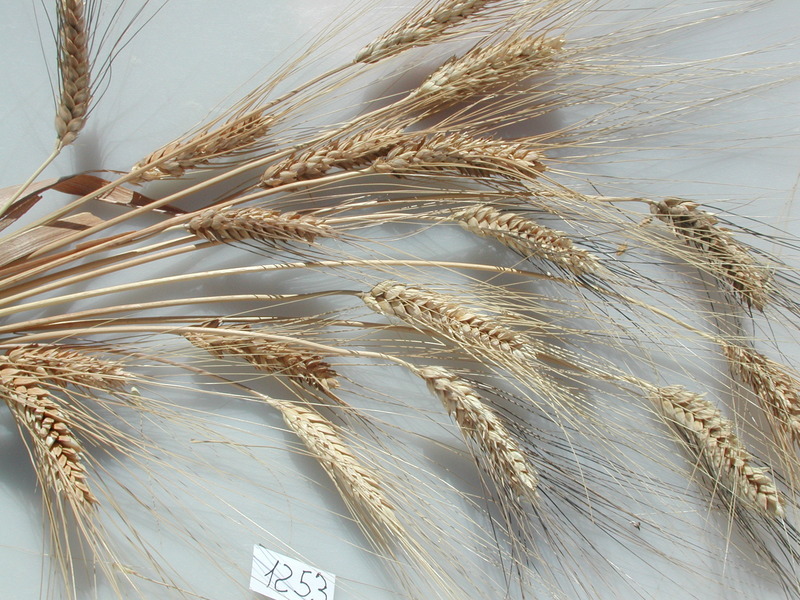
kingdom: Plantae
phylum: Tracheophyta
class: Liliopsida
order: Poales
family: Poaceae
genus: Triticum
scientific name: Triticum turgidum
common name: Wheat
